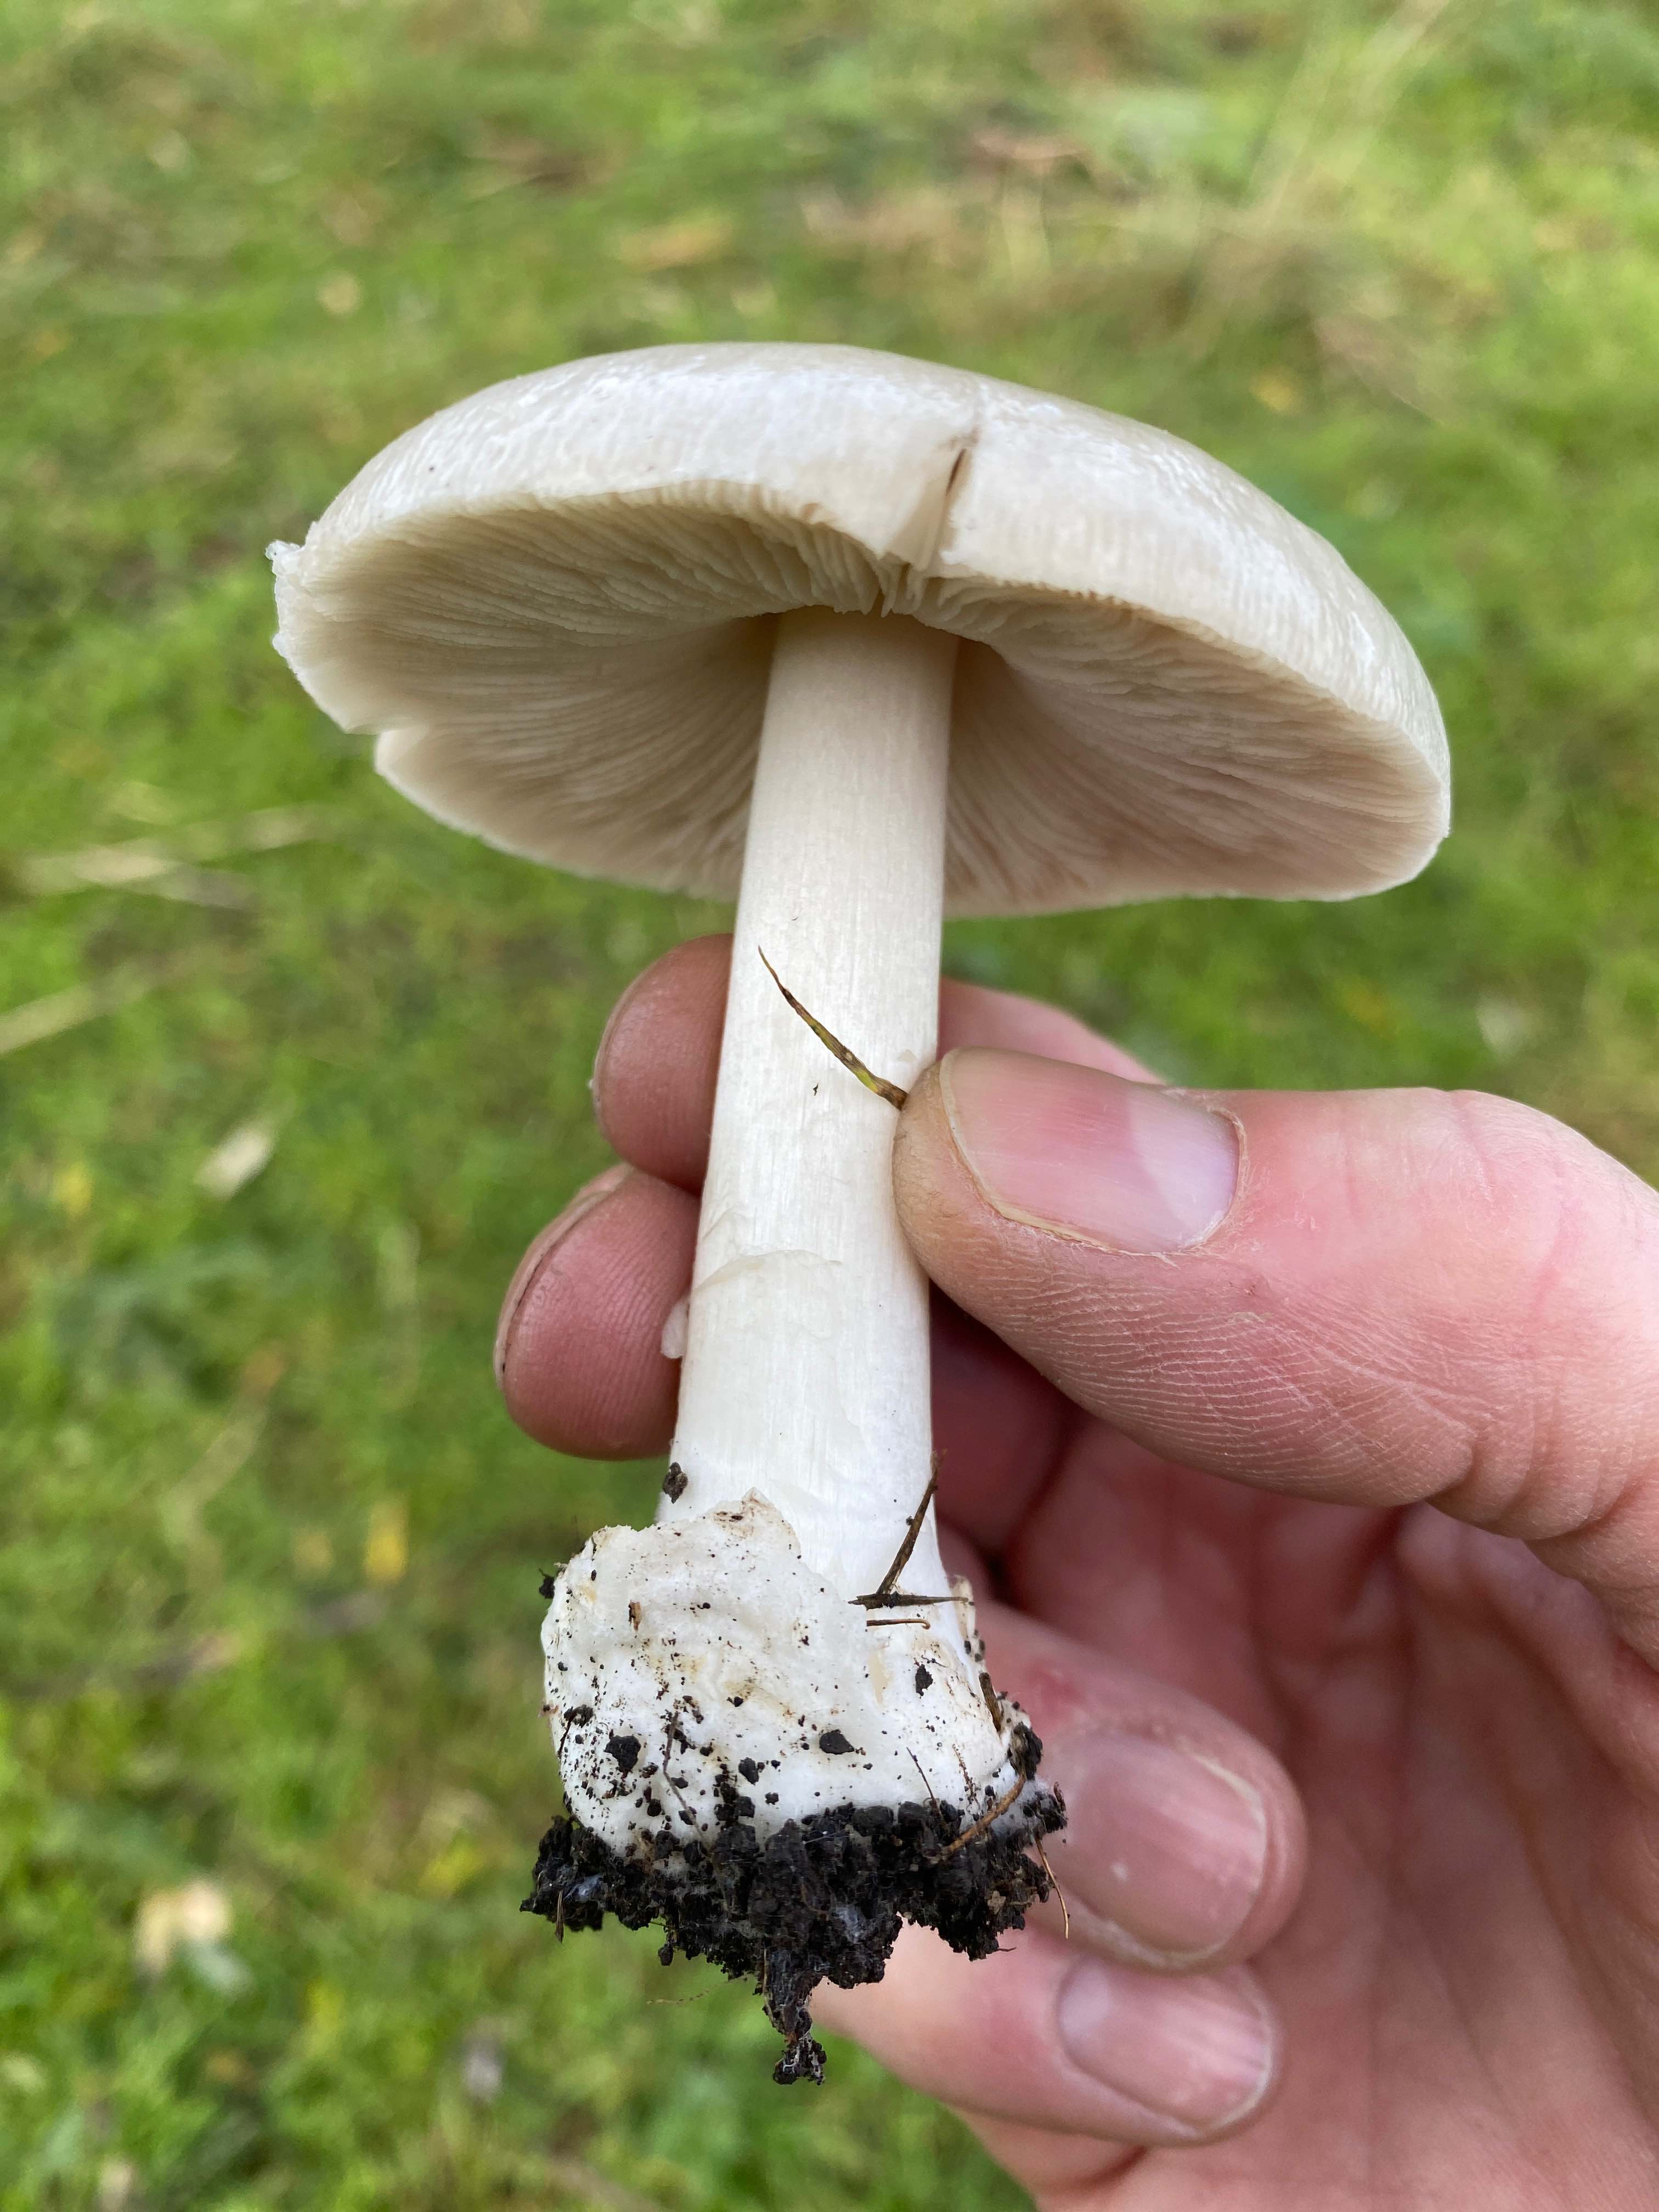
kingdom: Fungi
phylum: Basidiomycota
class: Agaricomycetes
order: Agaricales
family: Pluteaceae
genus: Volvopluteus
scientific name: Volvopluteus gloiocephalus
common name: høj posesvamp
